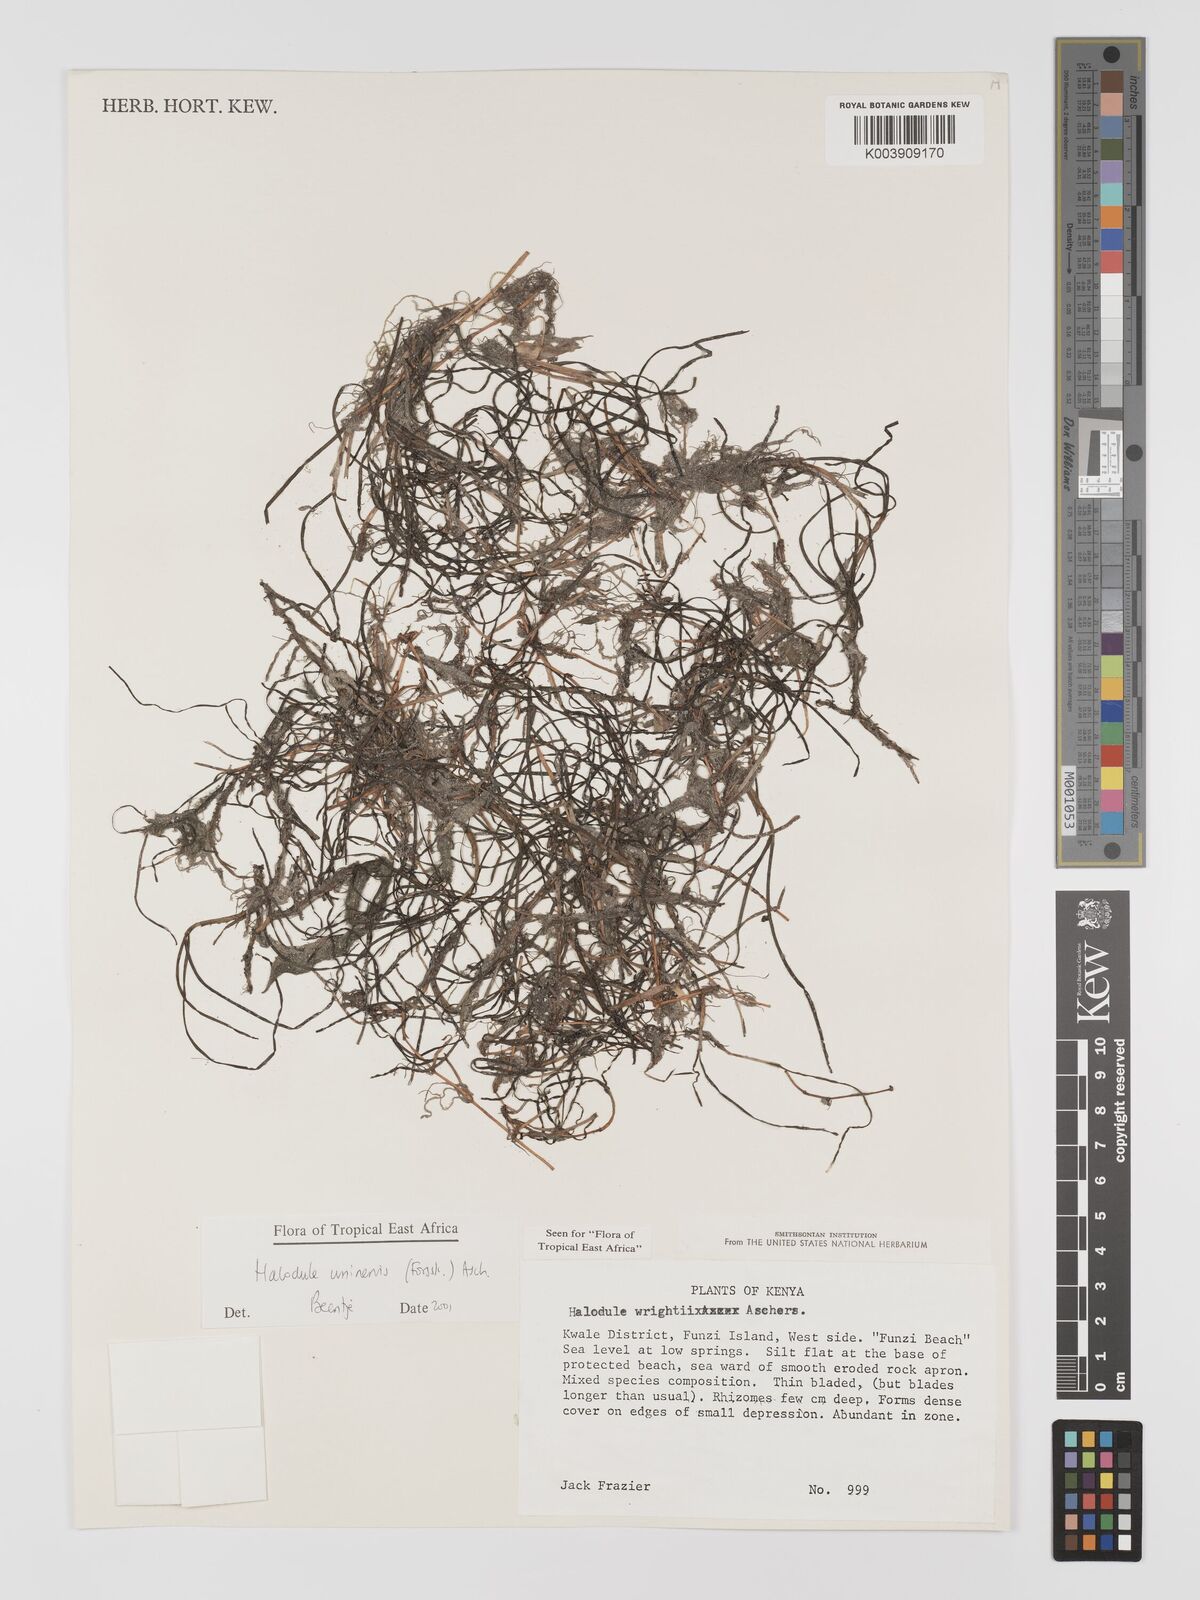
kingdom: Plantae
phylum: Tracheophyta
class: Liliopsida
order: Alismatales
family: Cymodoceaceae
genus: Halodule
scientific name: Halodule uninervis
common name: Narrowleaf seagrass
